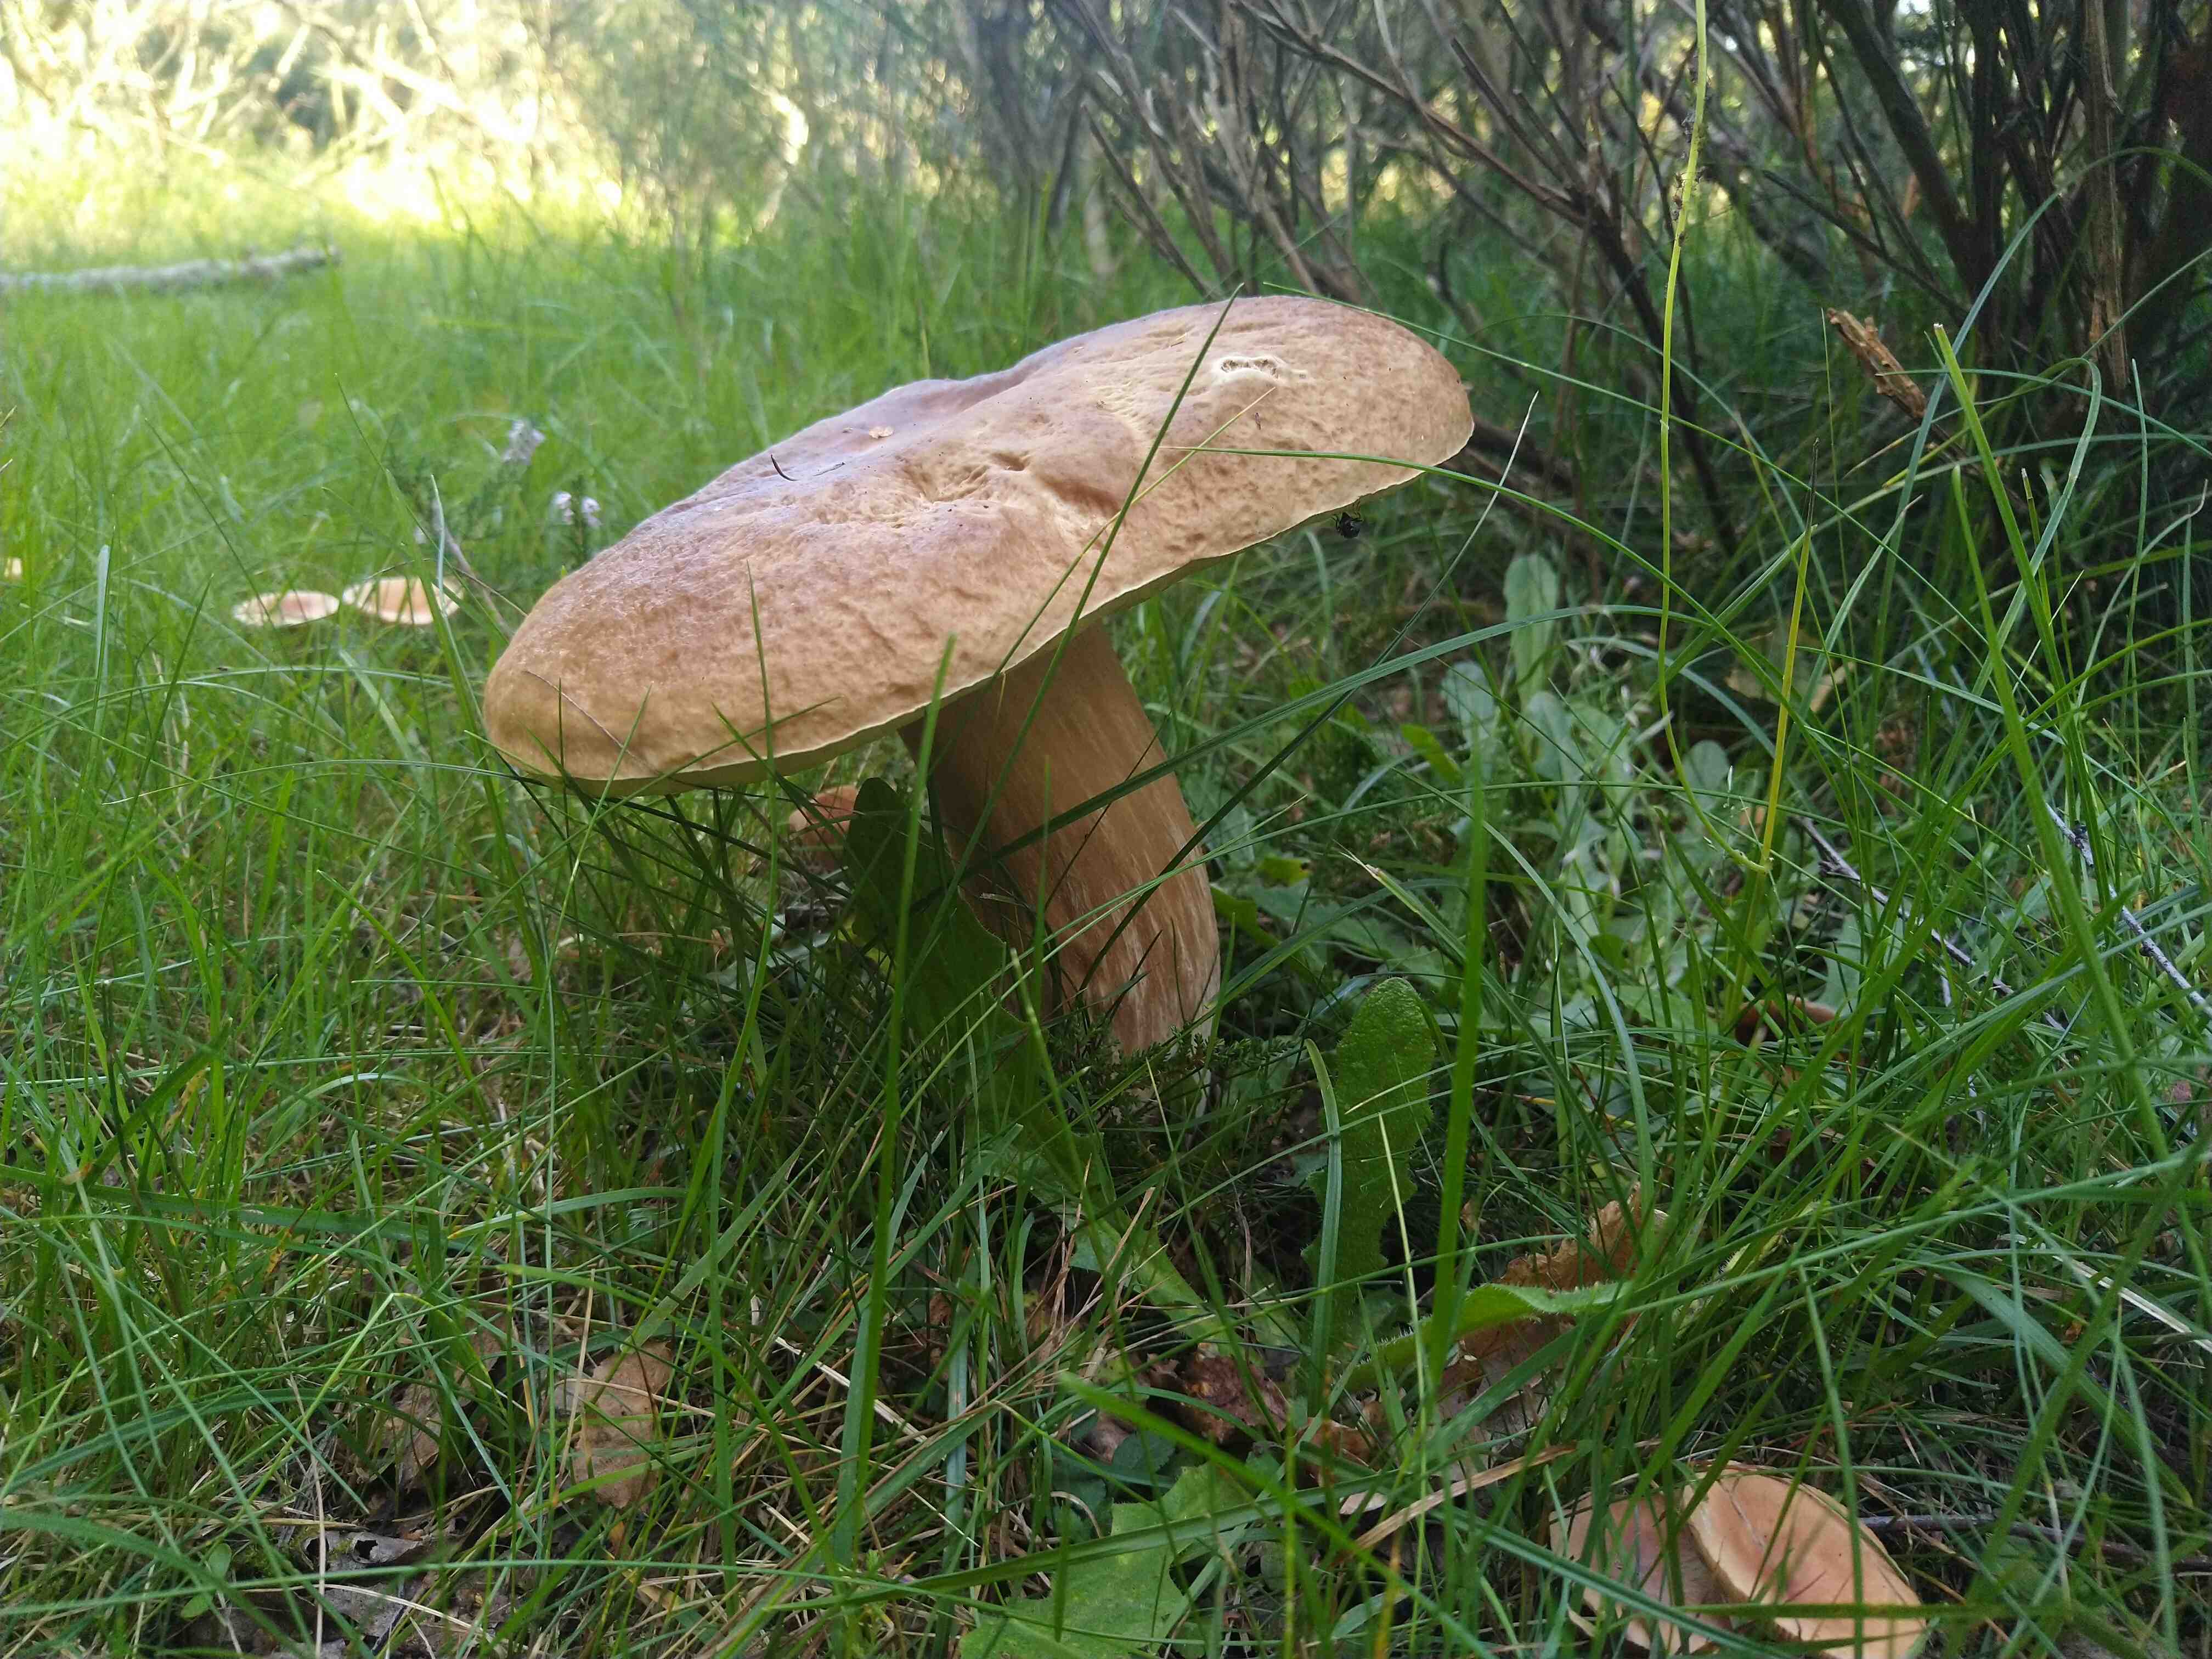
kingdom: Fungi
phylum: Basidiomycota
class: Agaricomycetes
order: Boletales
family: Boletaceae
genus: Boletus
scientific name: Boletus edulis
